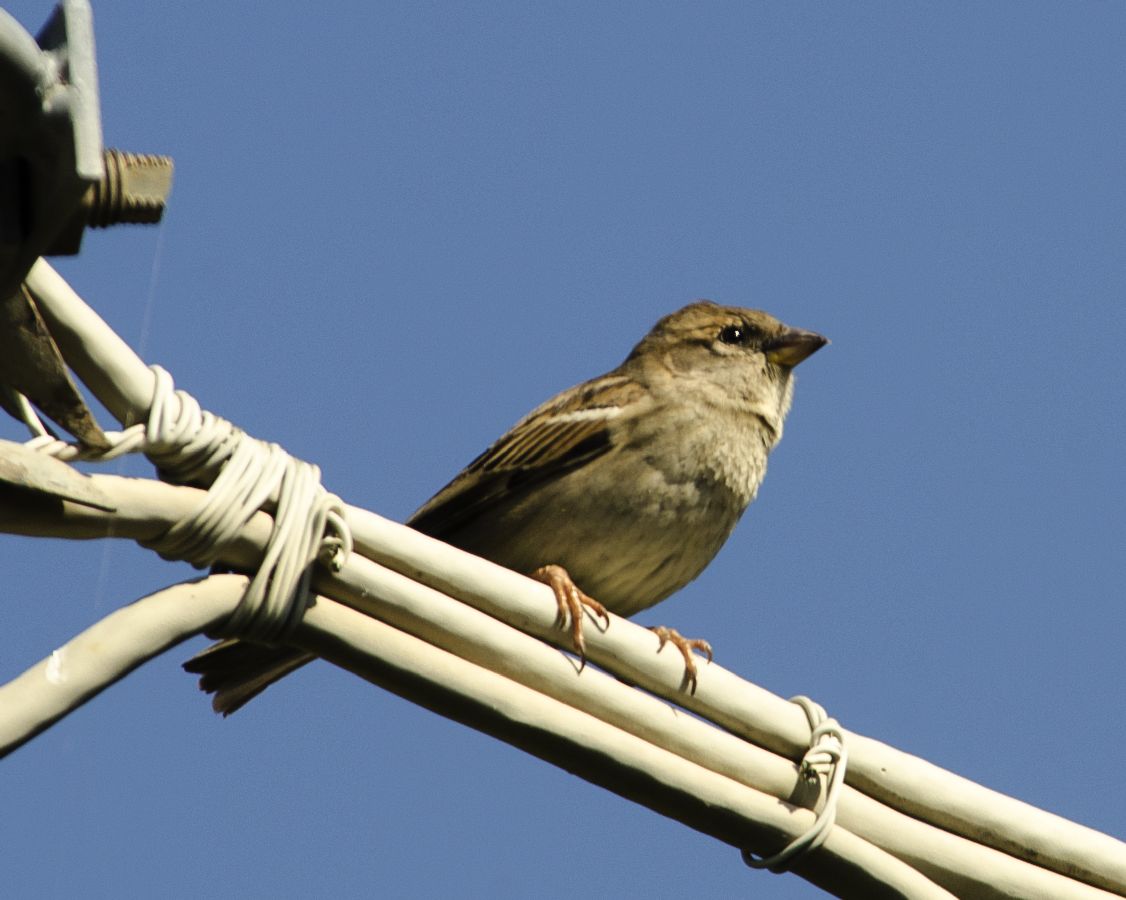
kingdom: Animalia
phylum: Chordata
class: Aves
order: Passeriformes
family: Passeridae
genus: Passer
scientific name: Passer domesticus
